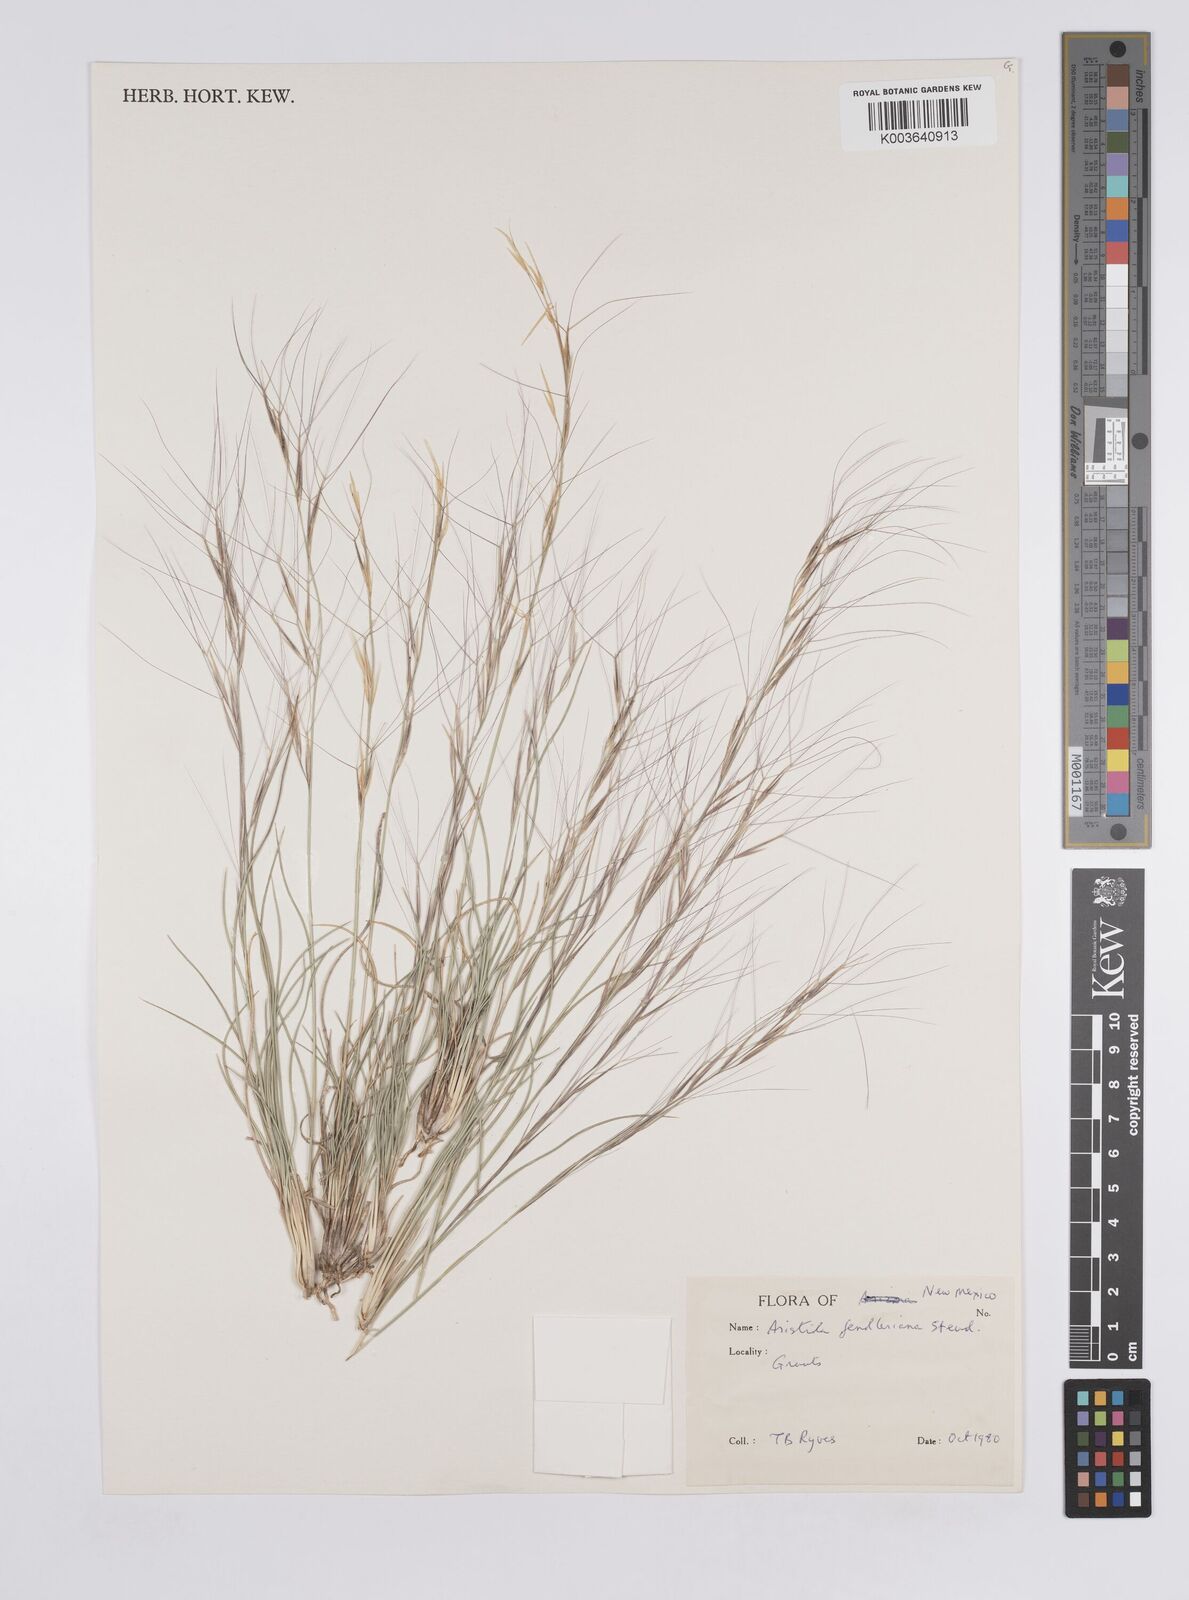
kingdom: Plantae
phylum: Tracheophyta
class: Liliopsida
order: Poales
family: Poaceae
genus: Aristida
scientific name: Aristida purpurea
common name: Purple threeawn
